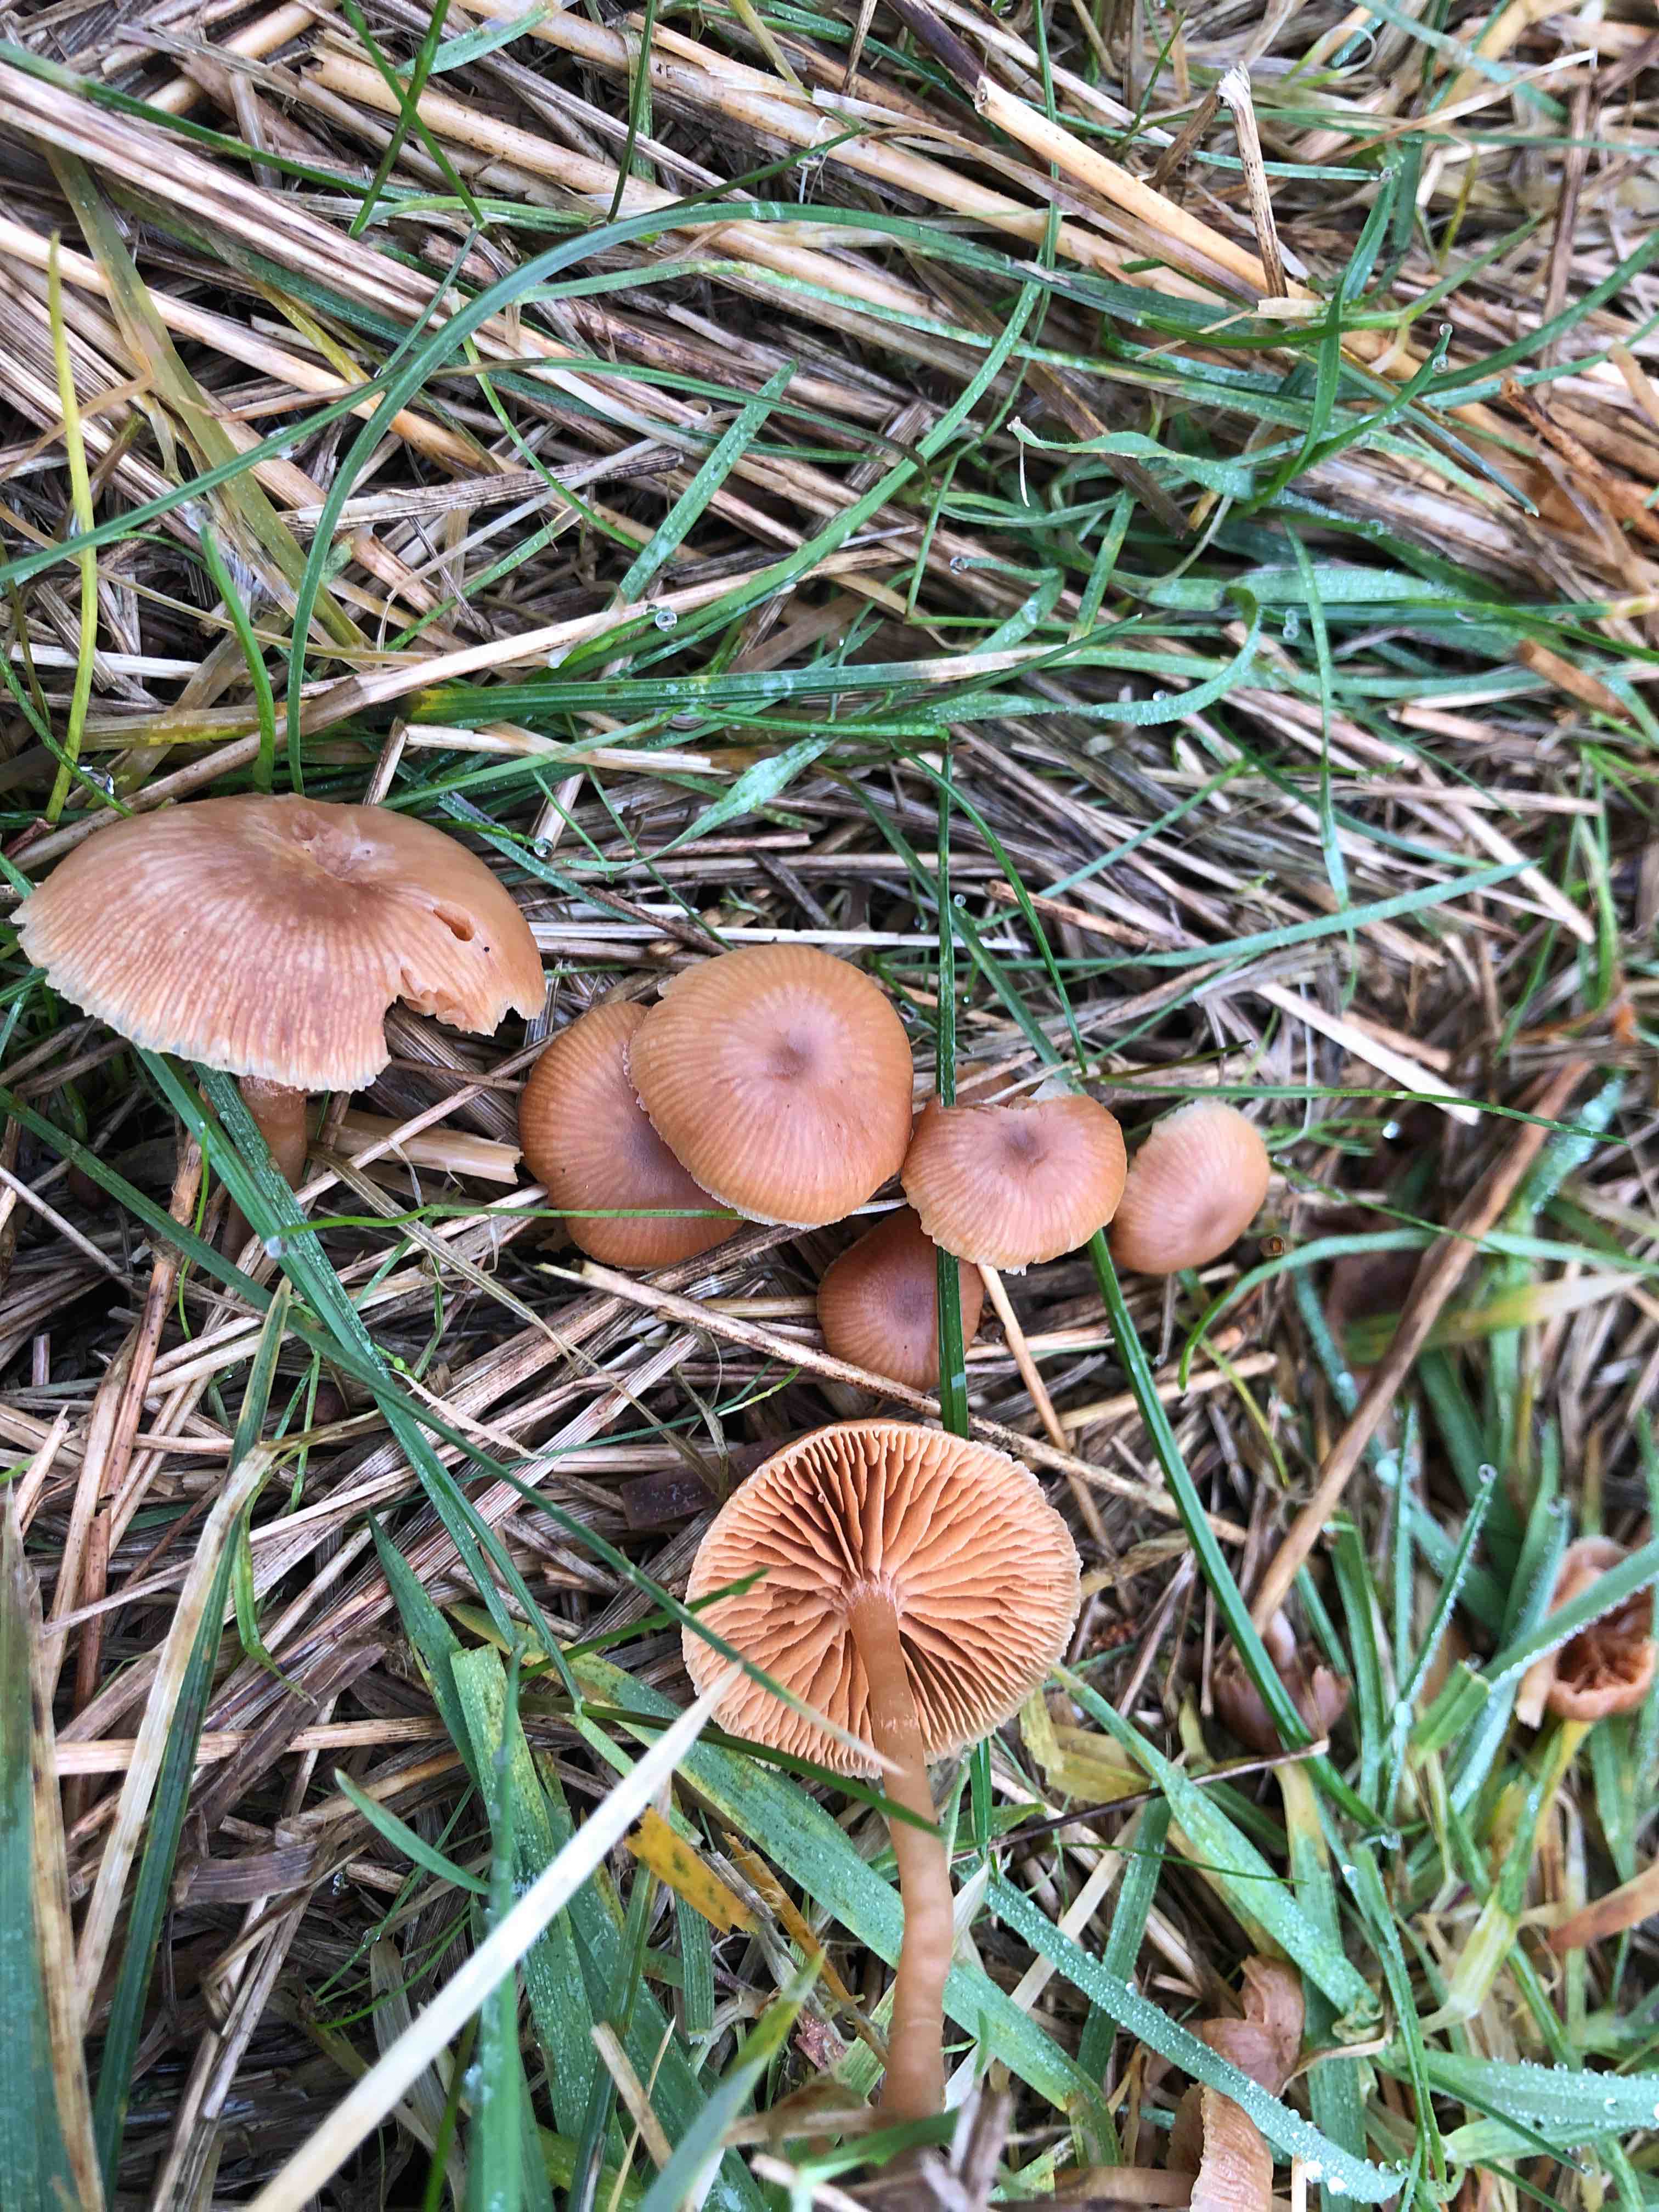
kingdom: Fungi
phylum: Basidiomycota
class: Agaricomycetes
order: Agaricales
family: Tubariaceae
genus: Tubaria
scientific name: Tubaria furfuracea
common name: kliddet fnughat
